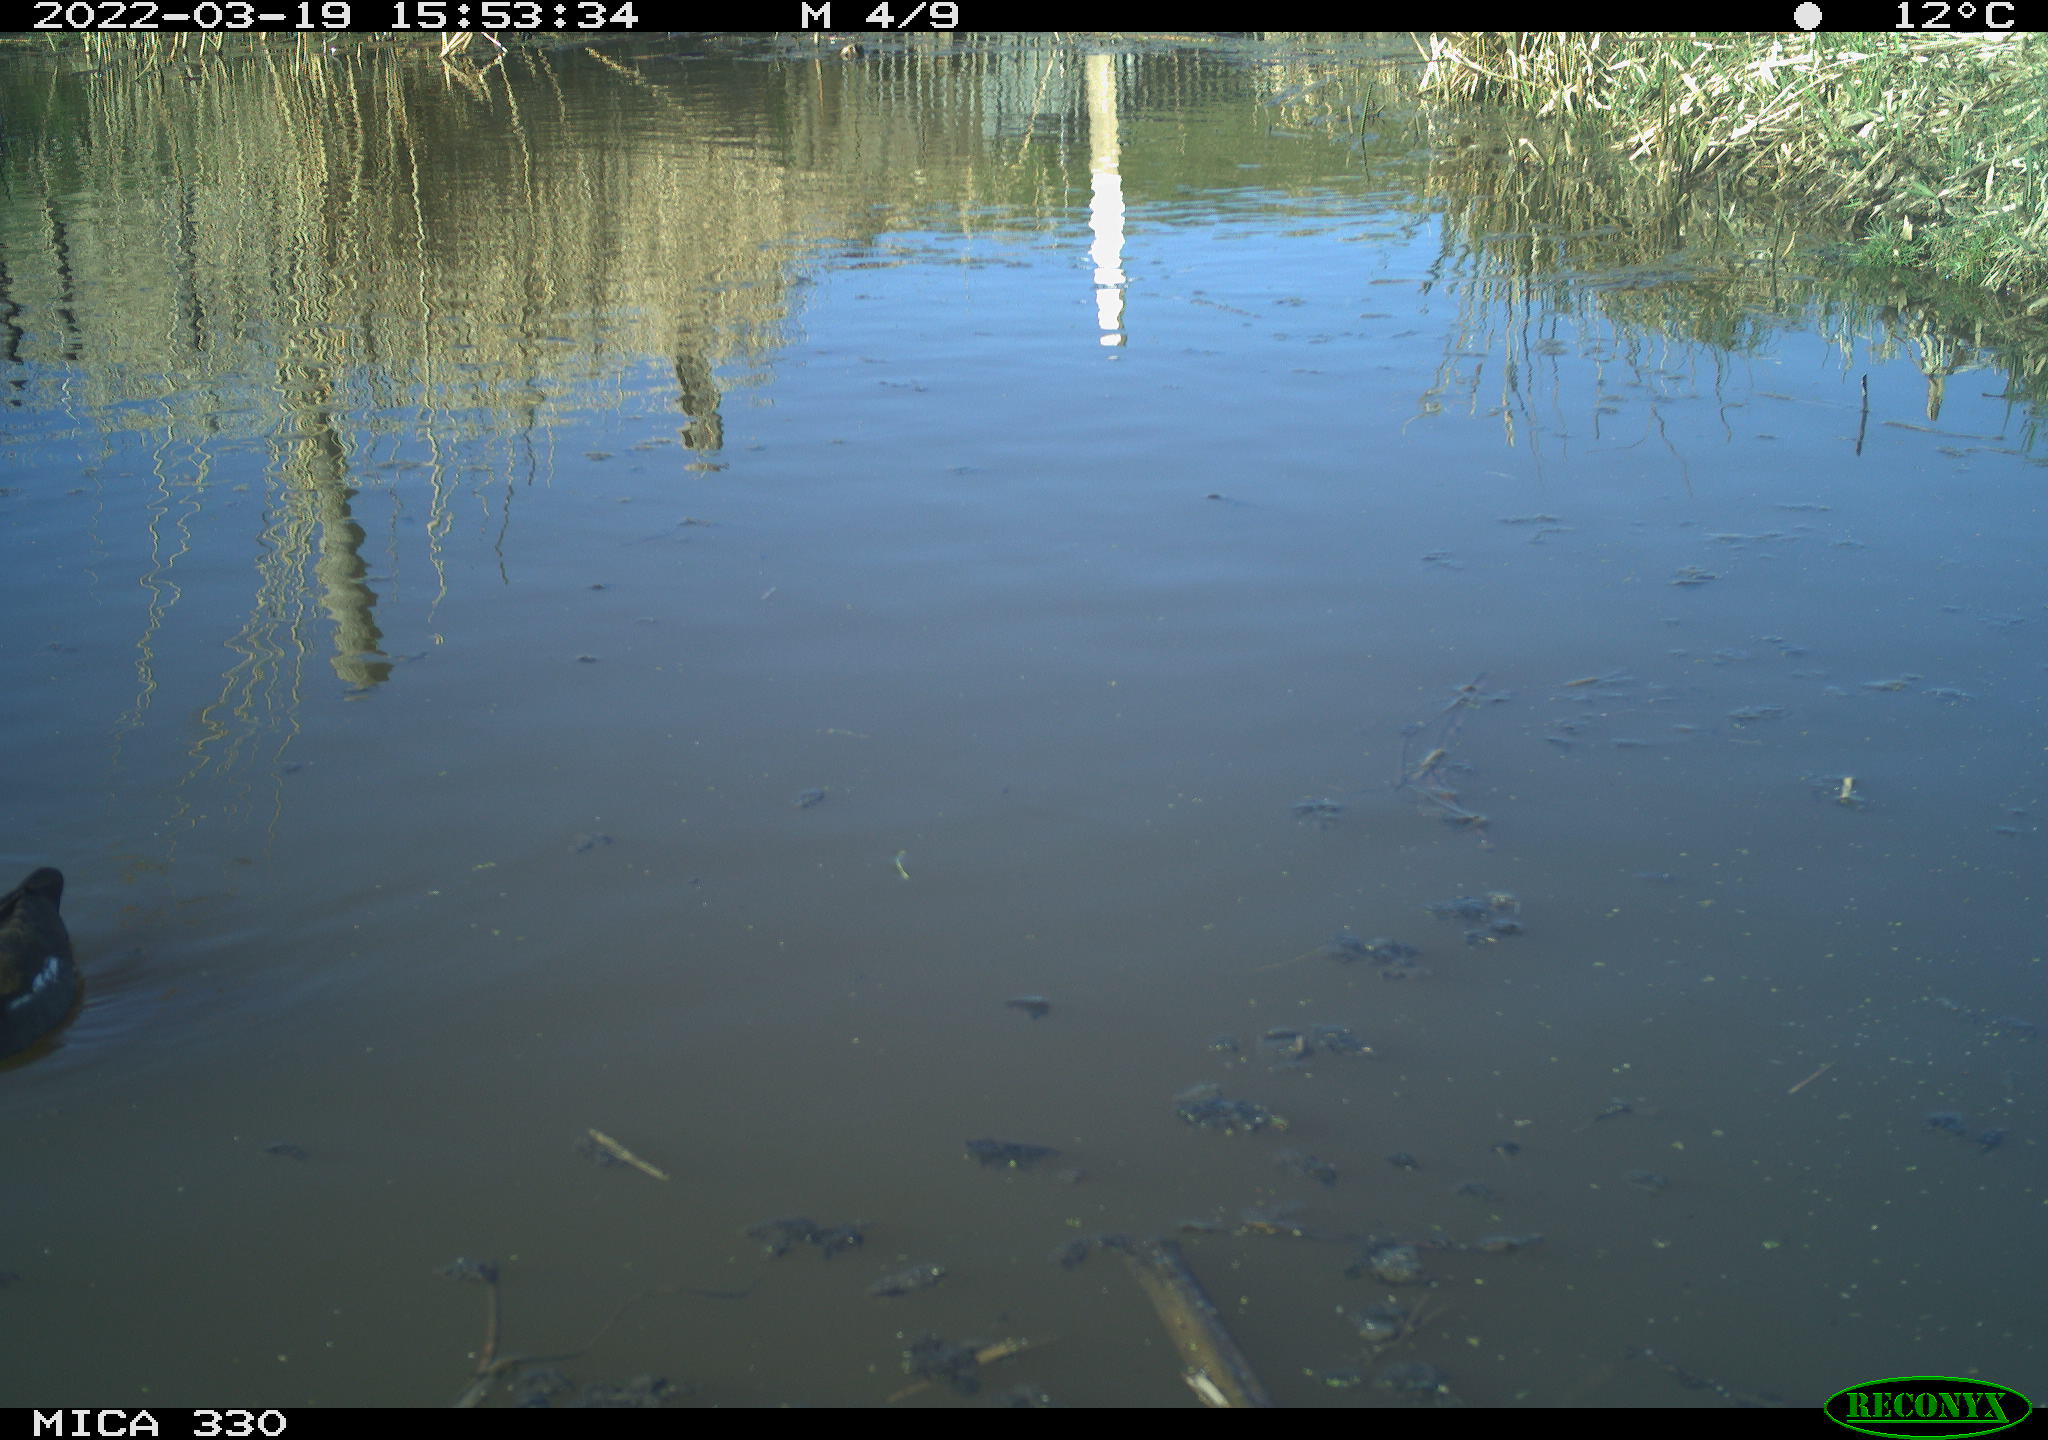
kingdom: Animalia
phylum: Chordata
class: Aves
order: Gruiformes
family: Rallidae
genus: Gallinula
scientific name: Gallinula chloropus
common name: Common moorhen
